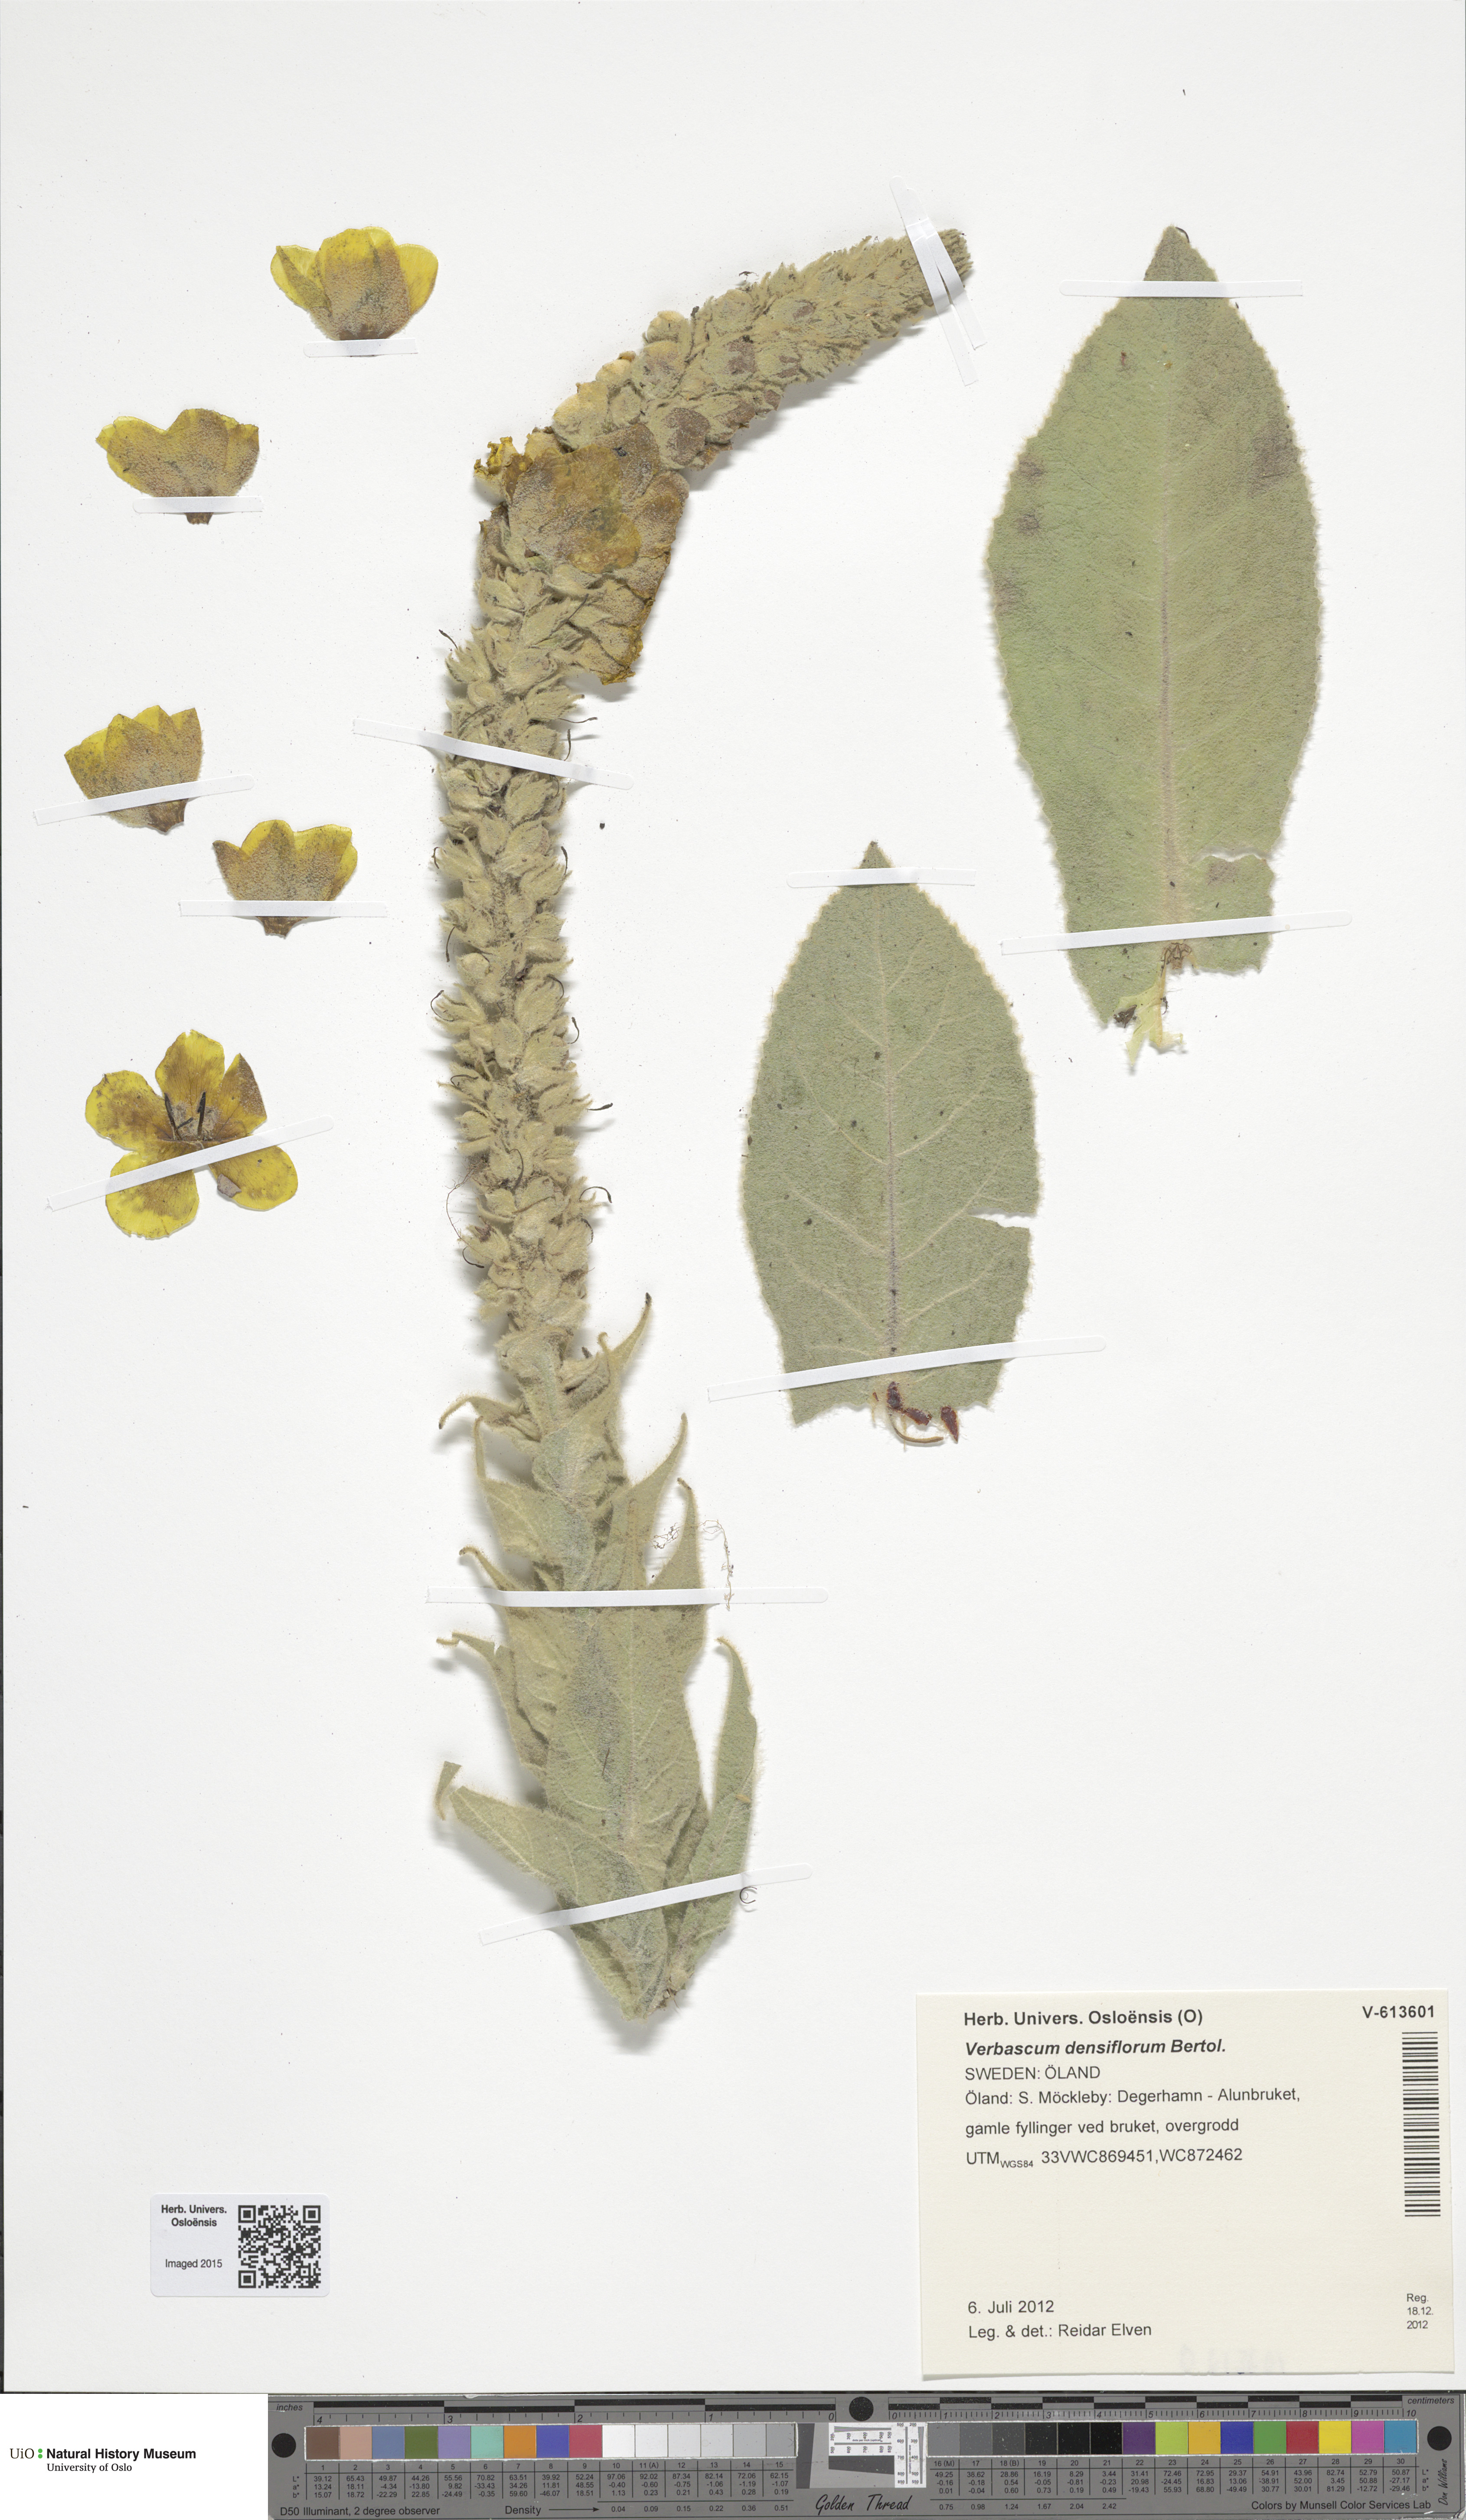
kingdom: Plantae
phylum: Tracheophyta
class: Magnoliopsida
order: Lamiales
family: Scrophulariaceae
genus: Verbascum
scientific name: Verbascum densiflorum
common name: Dense-flowered mullein
